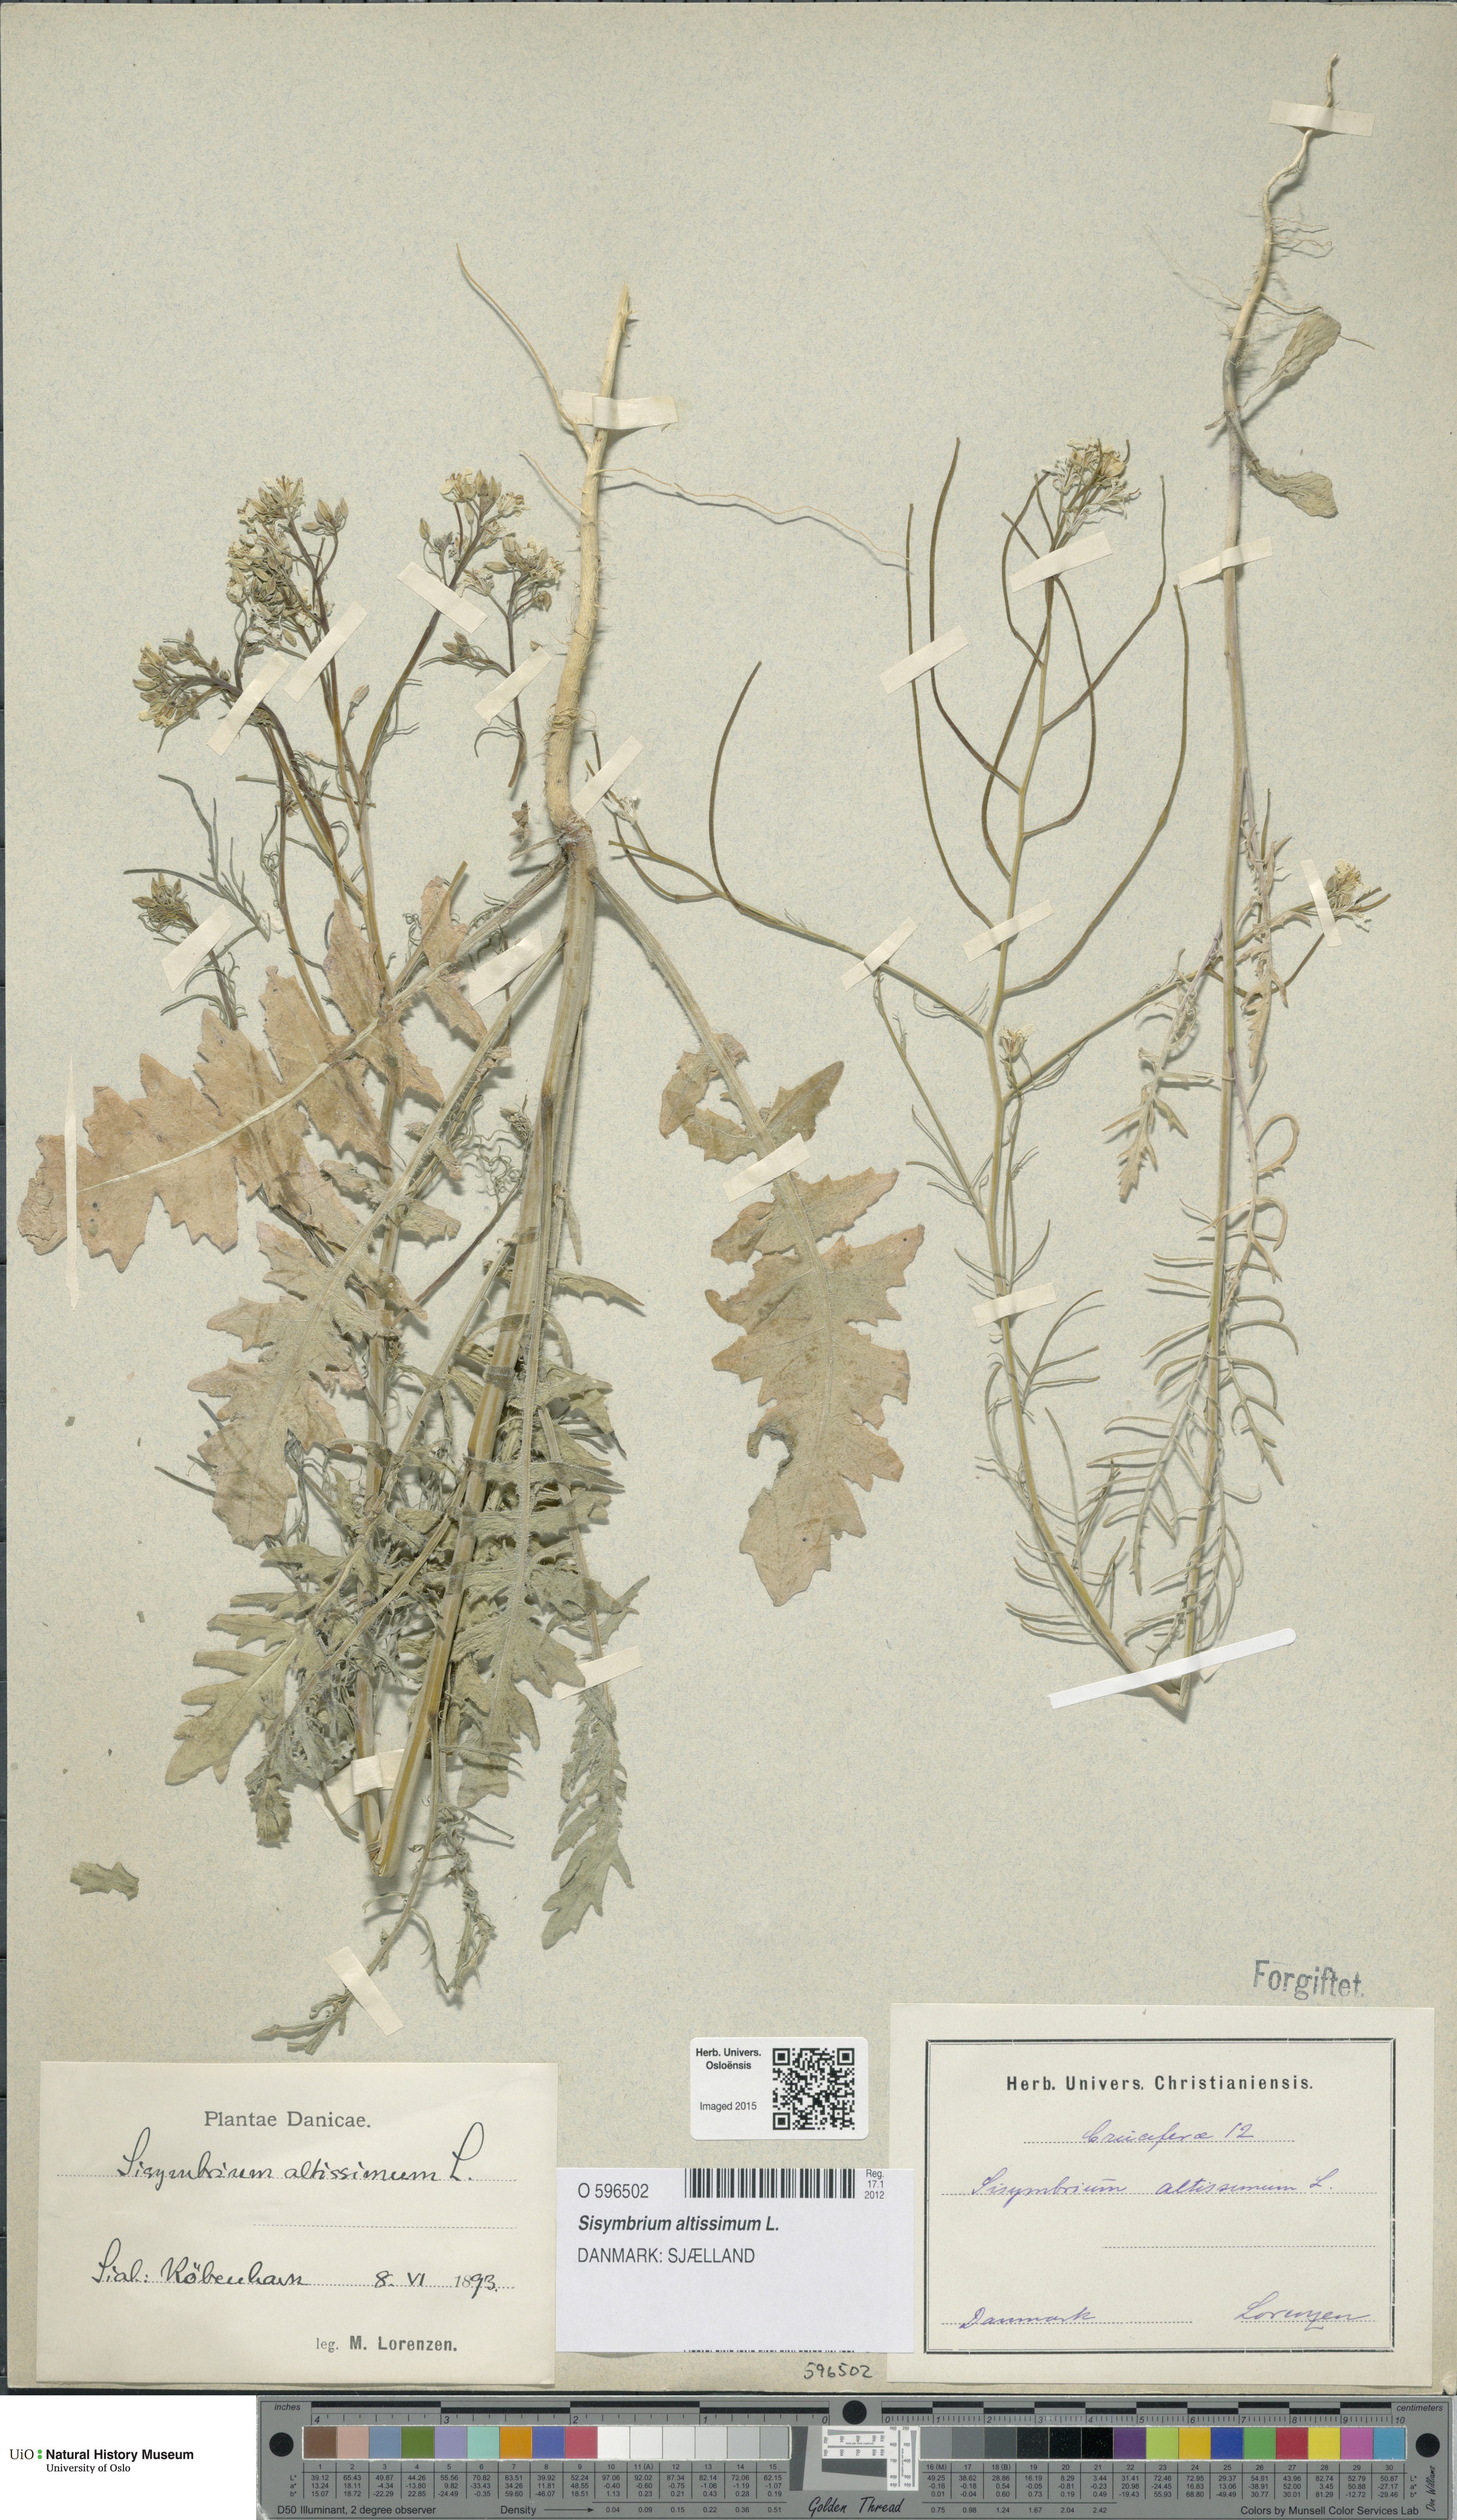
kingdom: Plantae
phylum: Tracheophyta
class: Magnoliopsida
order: Brassicales
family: Brassicaceae
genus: Sisymbrium
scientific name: Sisymbrium altissimum
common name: Tall rocket
